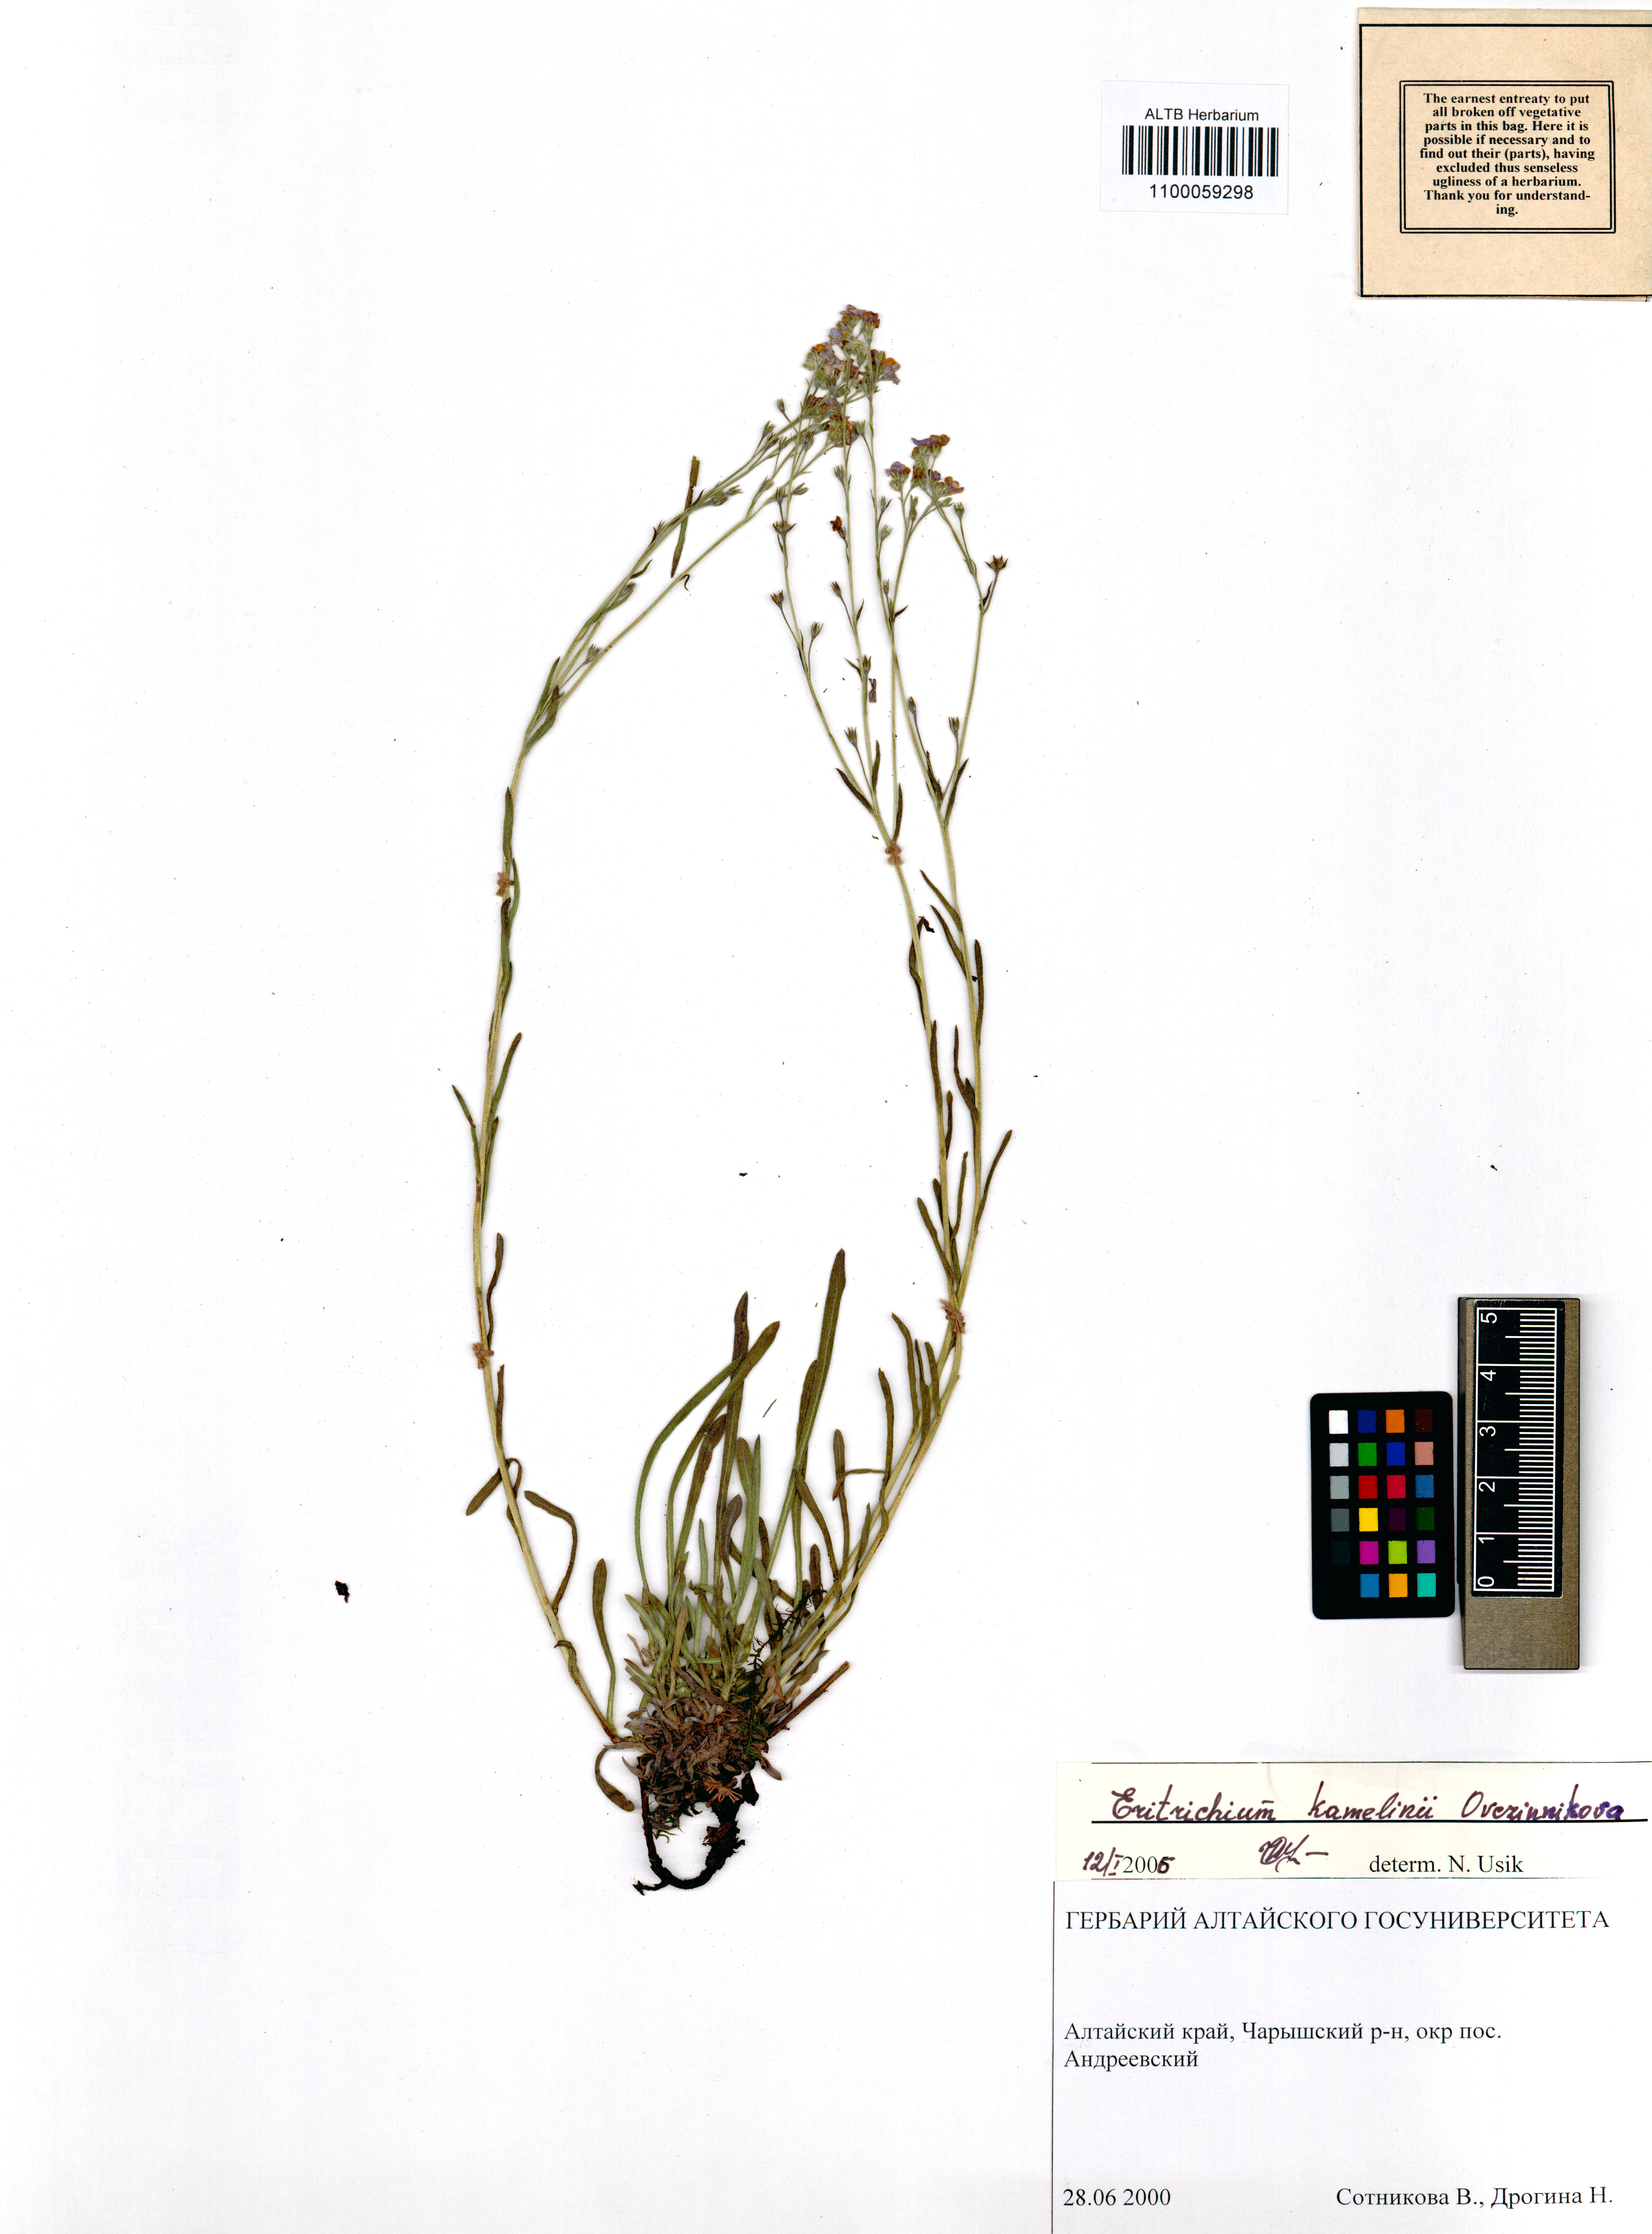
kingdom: Plantae
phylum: Tracheophyta
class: Magnoliopsida
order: Boraginales
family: Boraginaceae
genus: Eritrichium
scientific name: Eritrichium kamelinii
